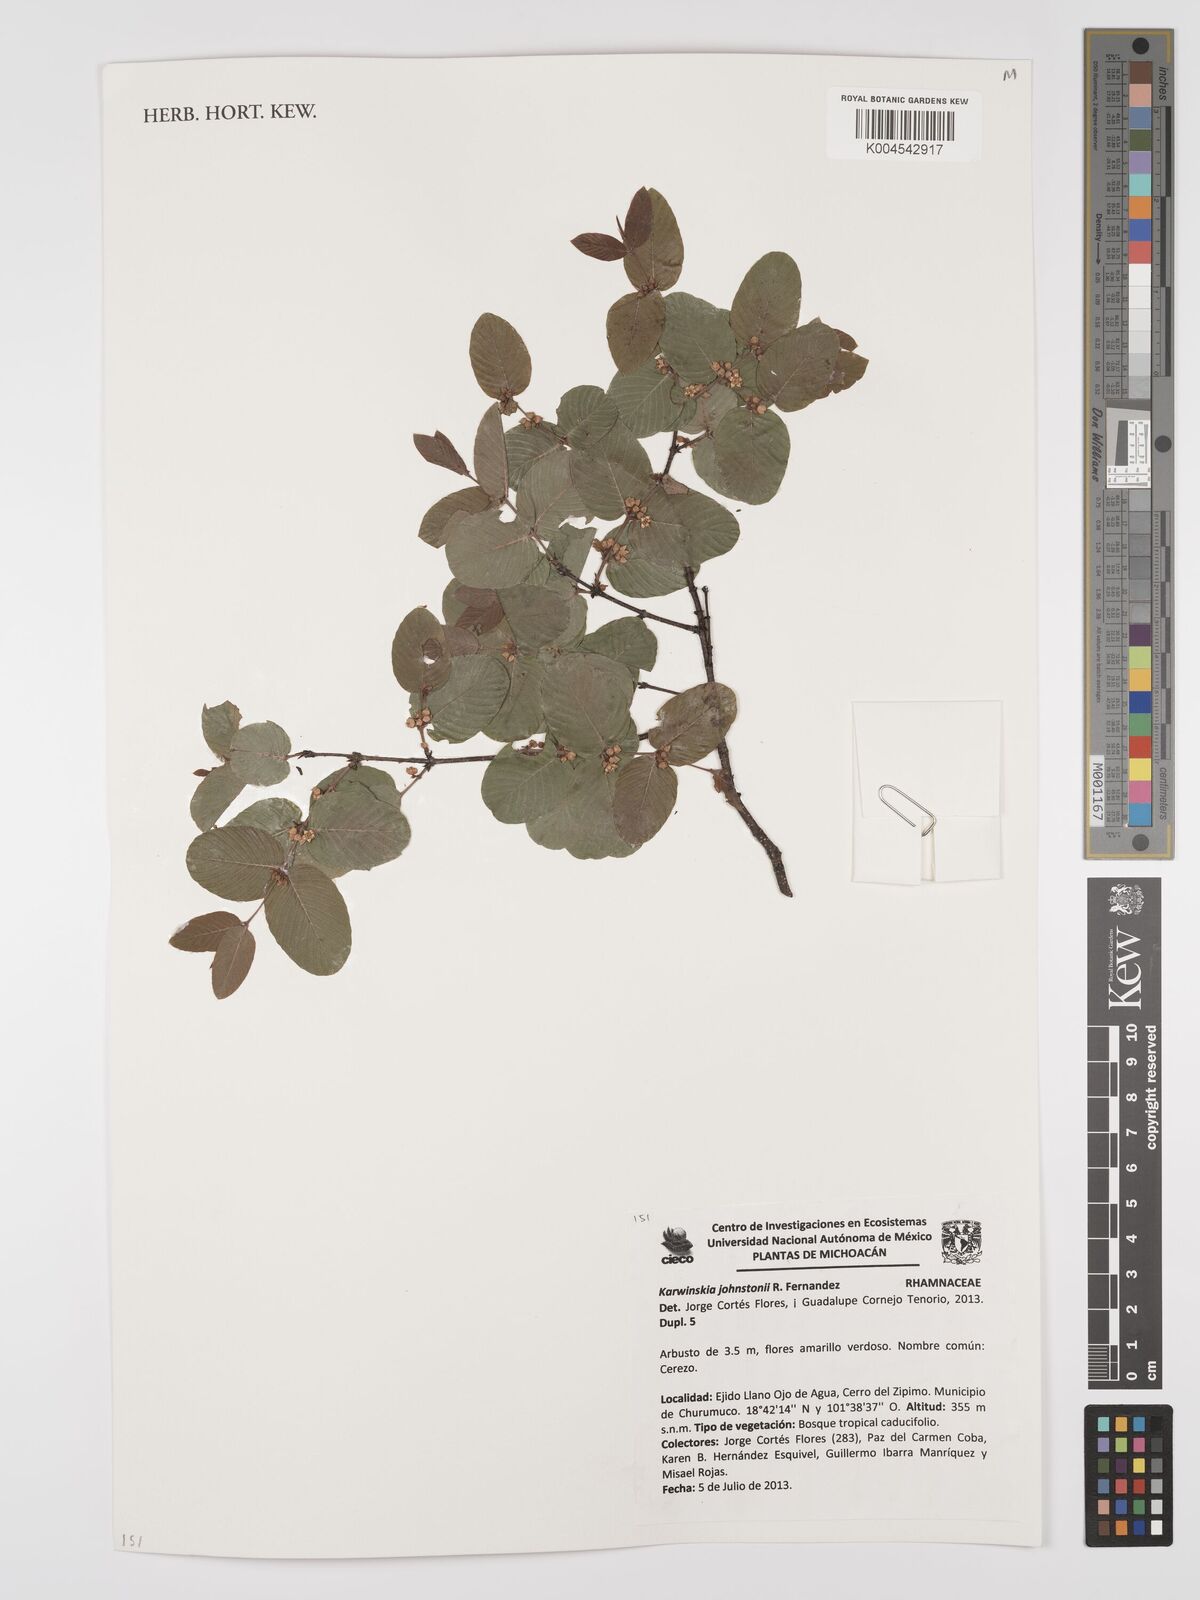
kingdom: Plantae
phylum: Tracheophyta
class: Magnoliopsida
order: Rosales
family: Rhamnaceae
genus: Karwinskia
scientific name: Karwinskia johnstonii
